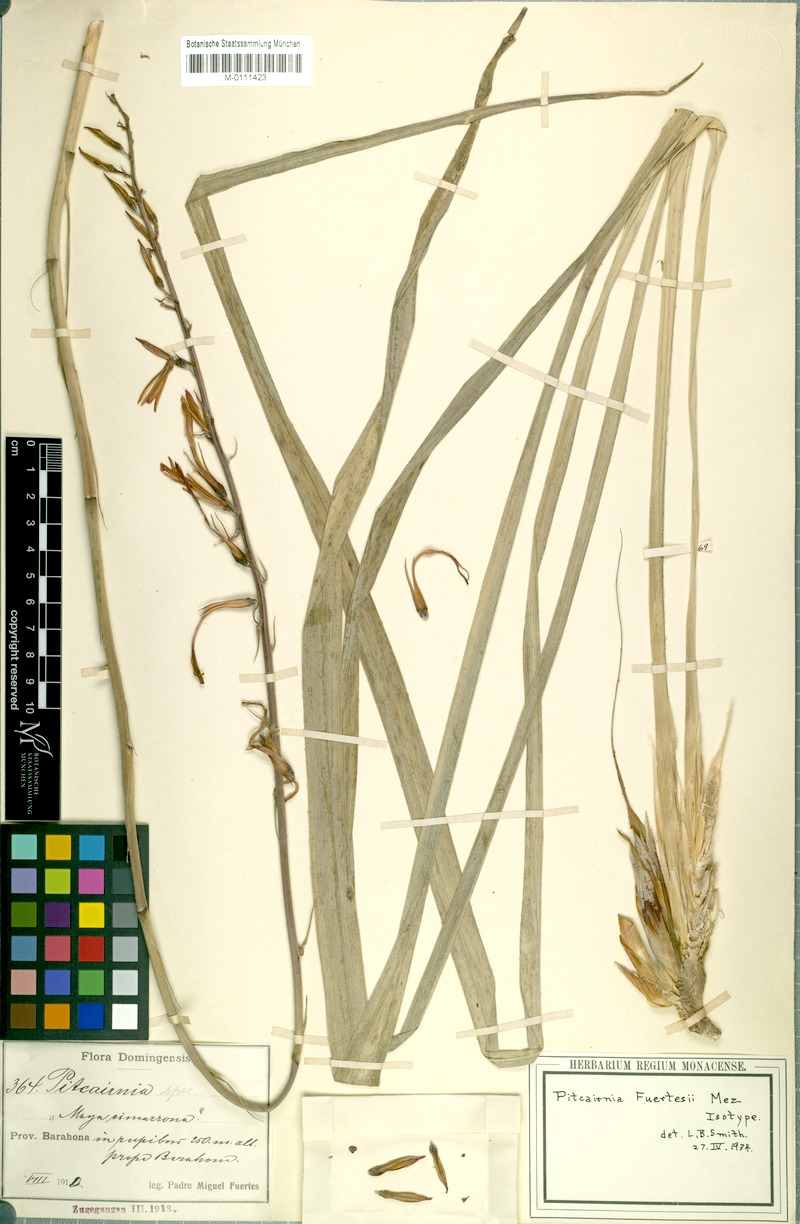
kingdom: Plantae
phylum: Tracheophyta
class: Liliopsida
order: Poales
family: Bromeliaceae
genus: Pitcairnia
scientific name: Pitcairnia fuertesii
